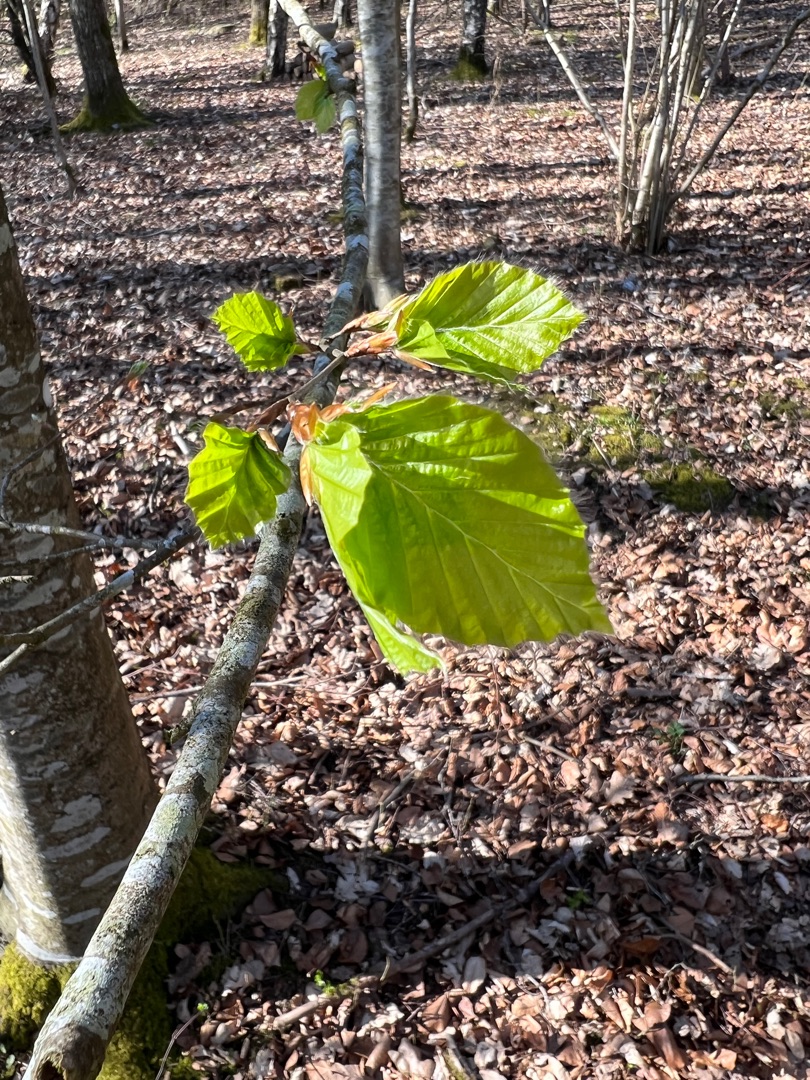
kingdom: Plantae
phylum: Tracheophyta
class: Magnoliopsida
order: Fagales
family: Fagaceae
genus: Fagus
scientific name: Fagus sylvatica
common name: Bøg
